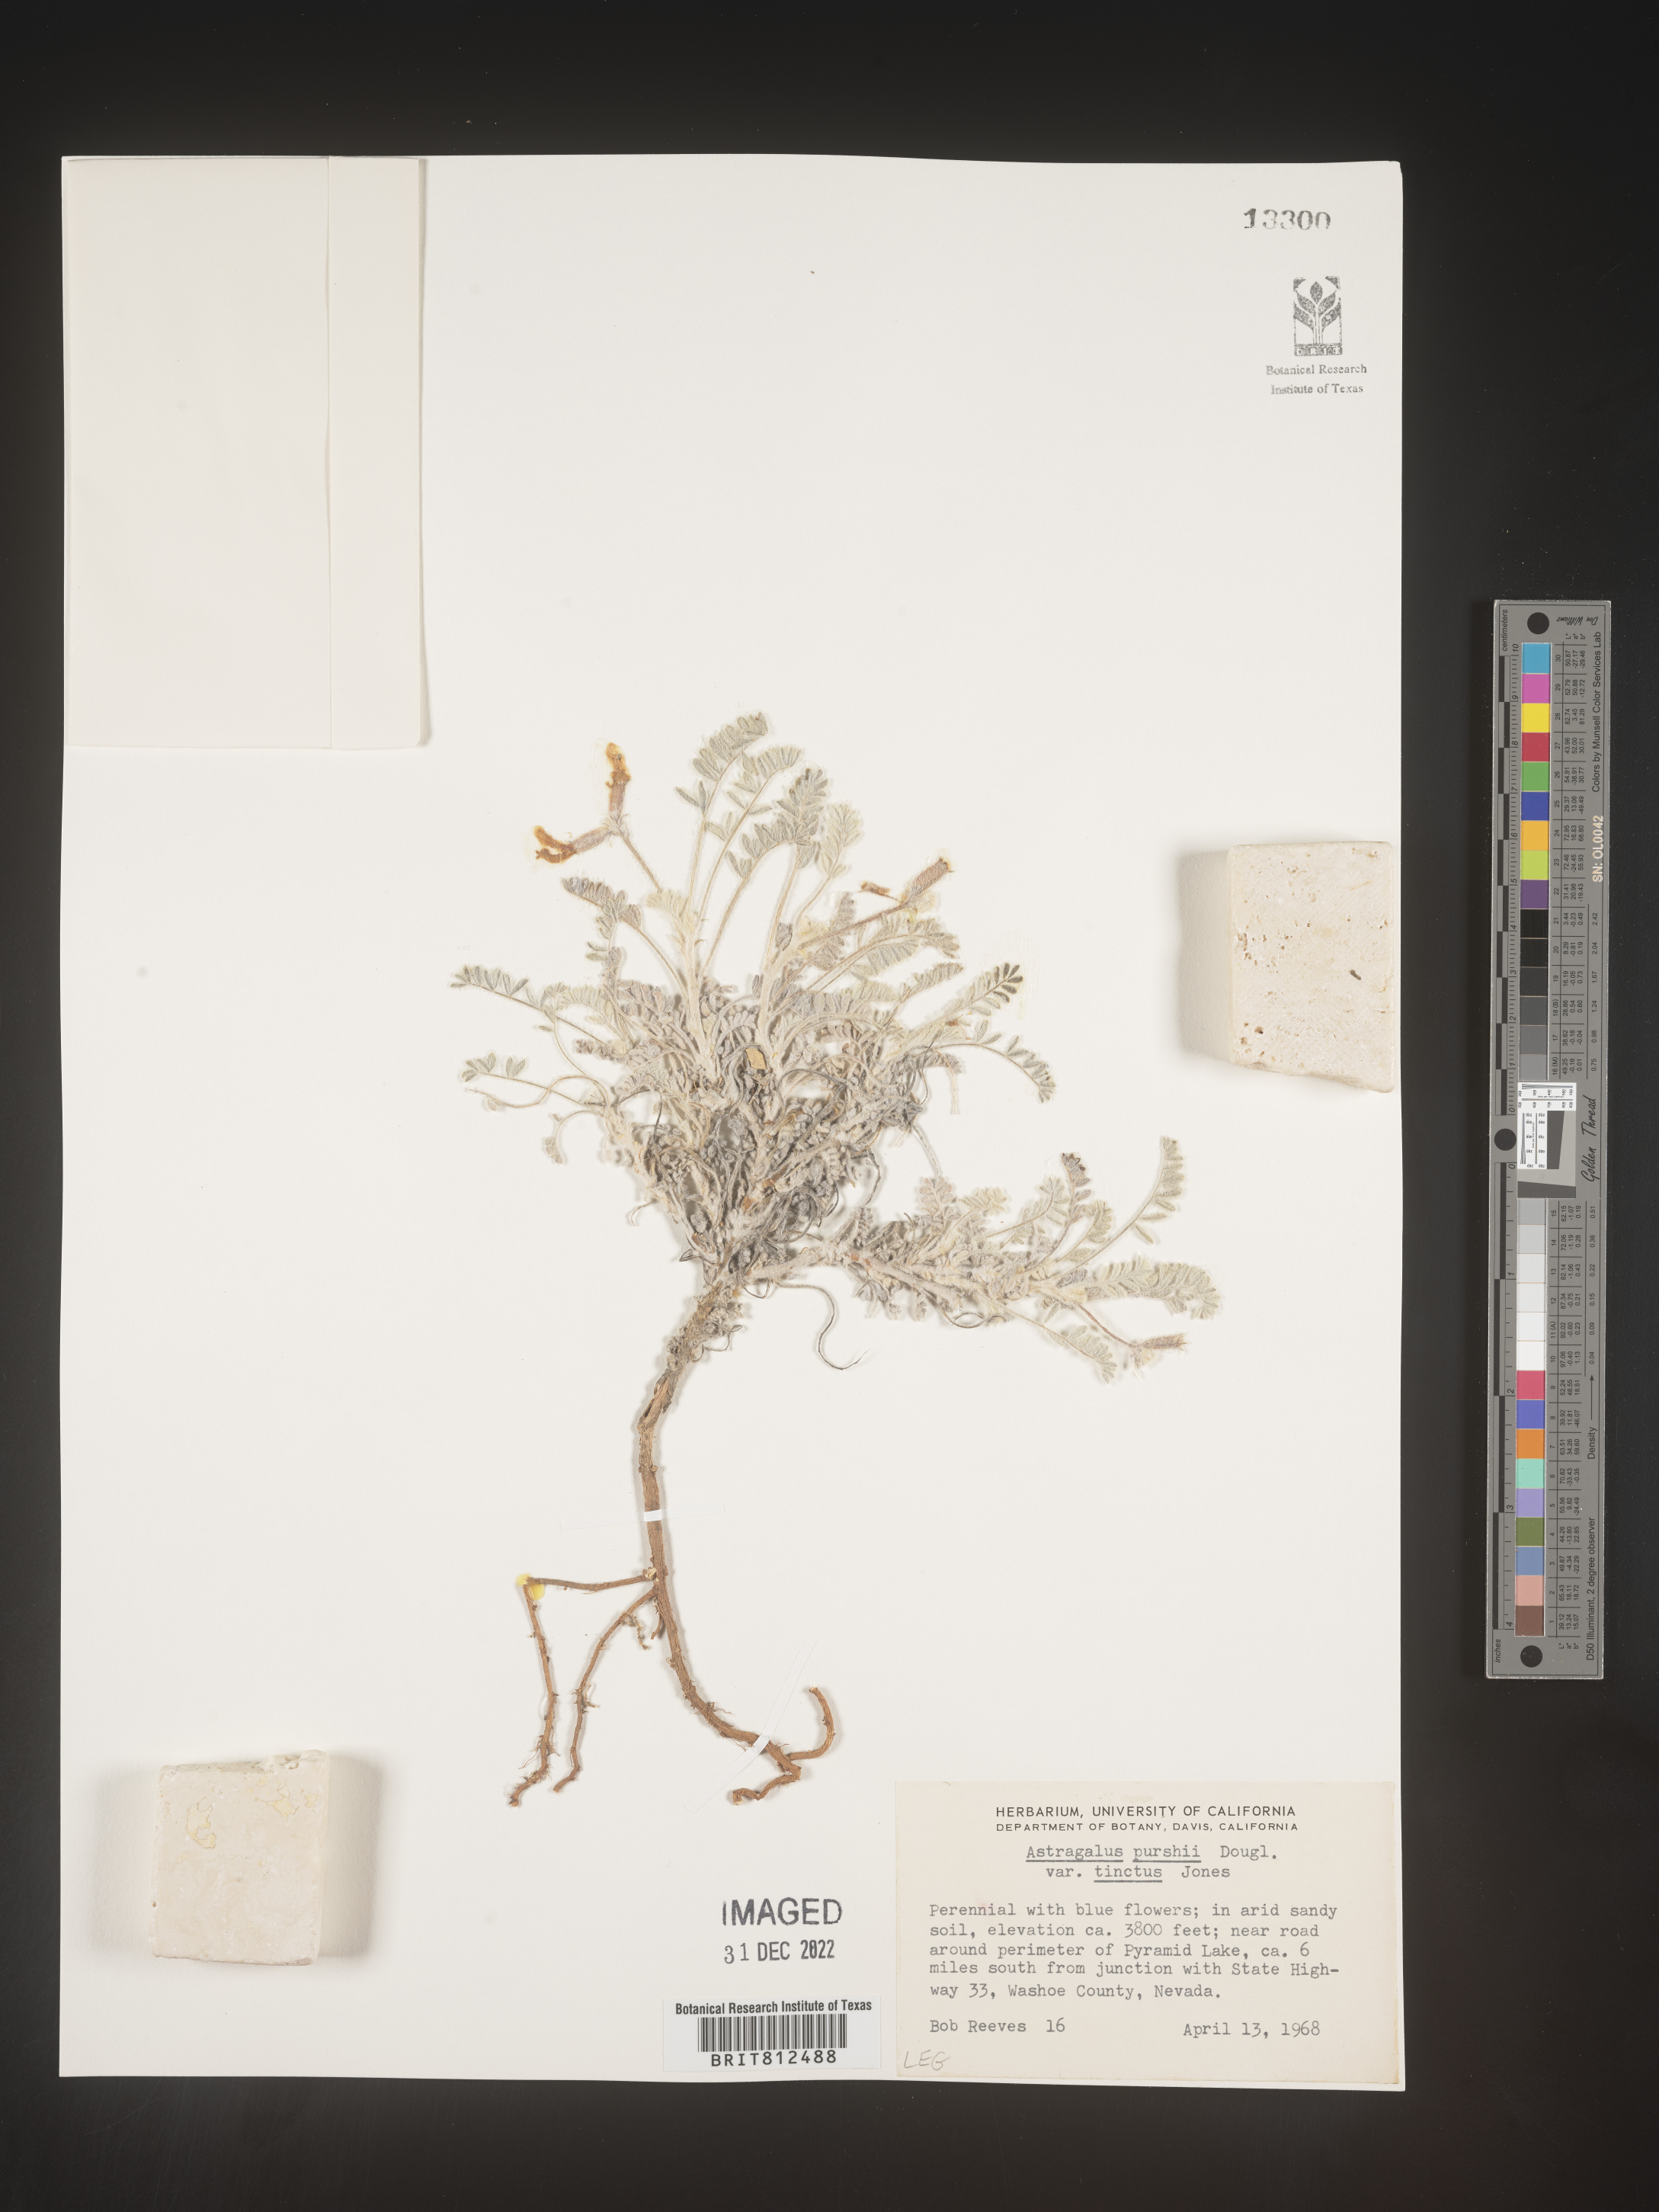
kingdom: Plantae
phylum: Tracheophyta
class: Magnoliopsida
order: Fabales
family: Fabaceae
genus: Astragalus
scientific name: Astragalus leucolobus
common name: Big bear valley woollypod
